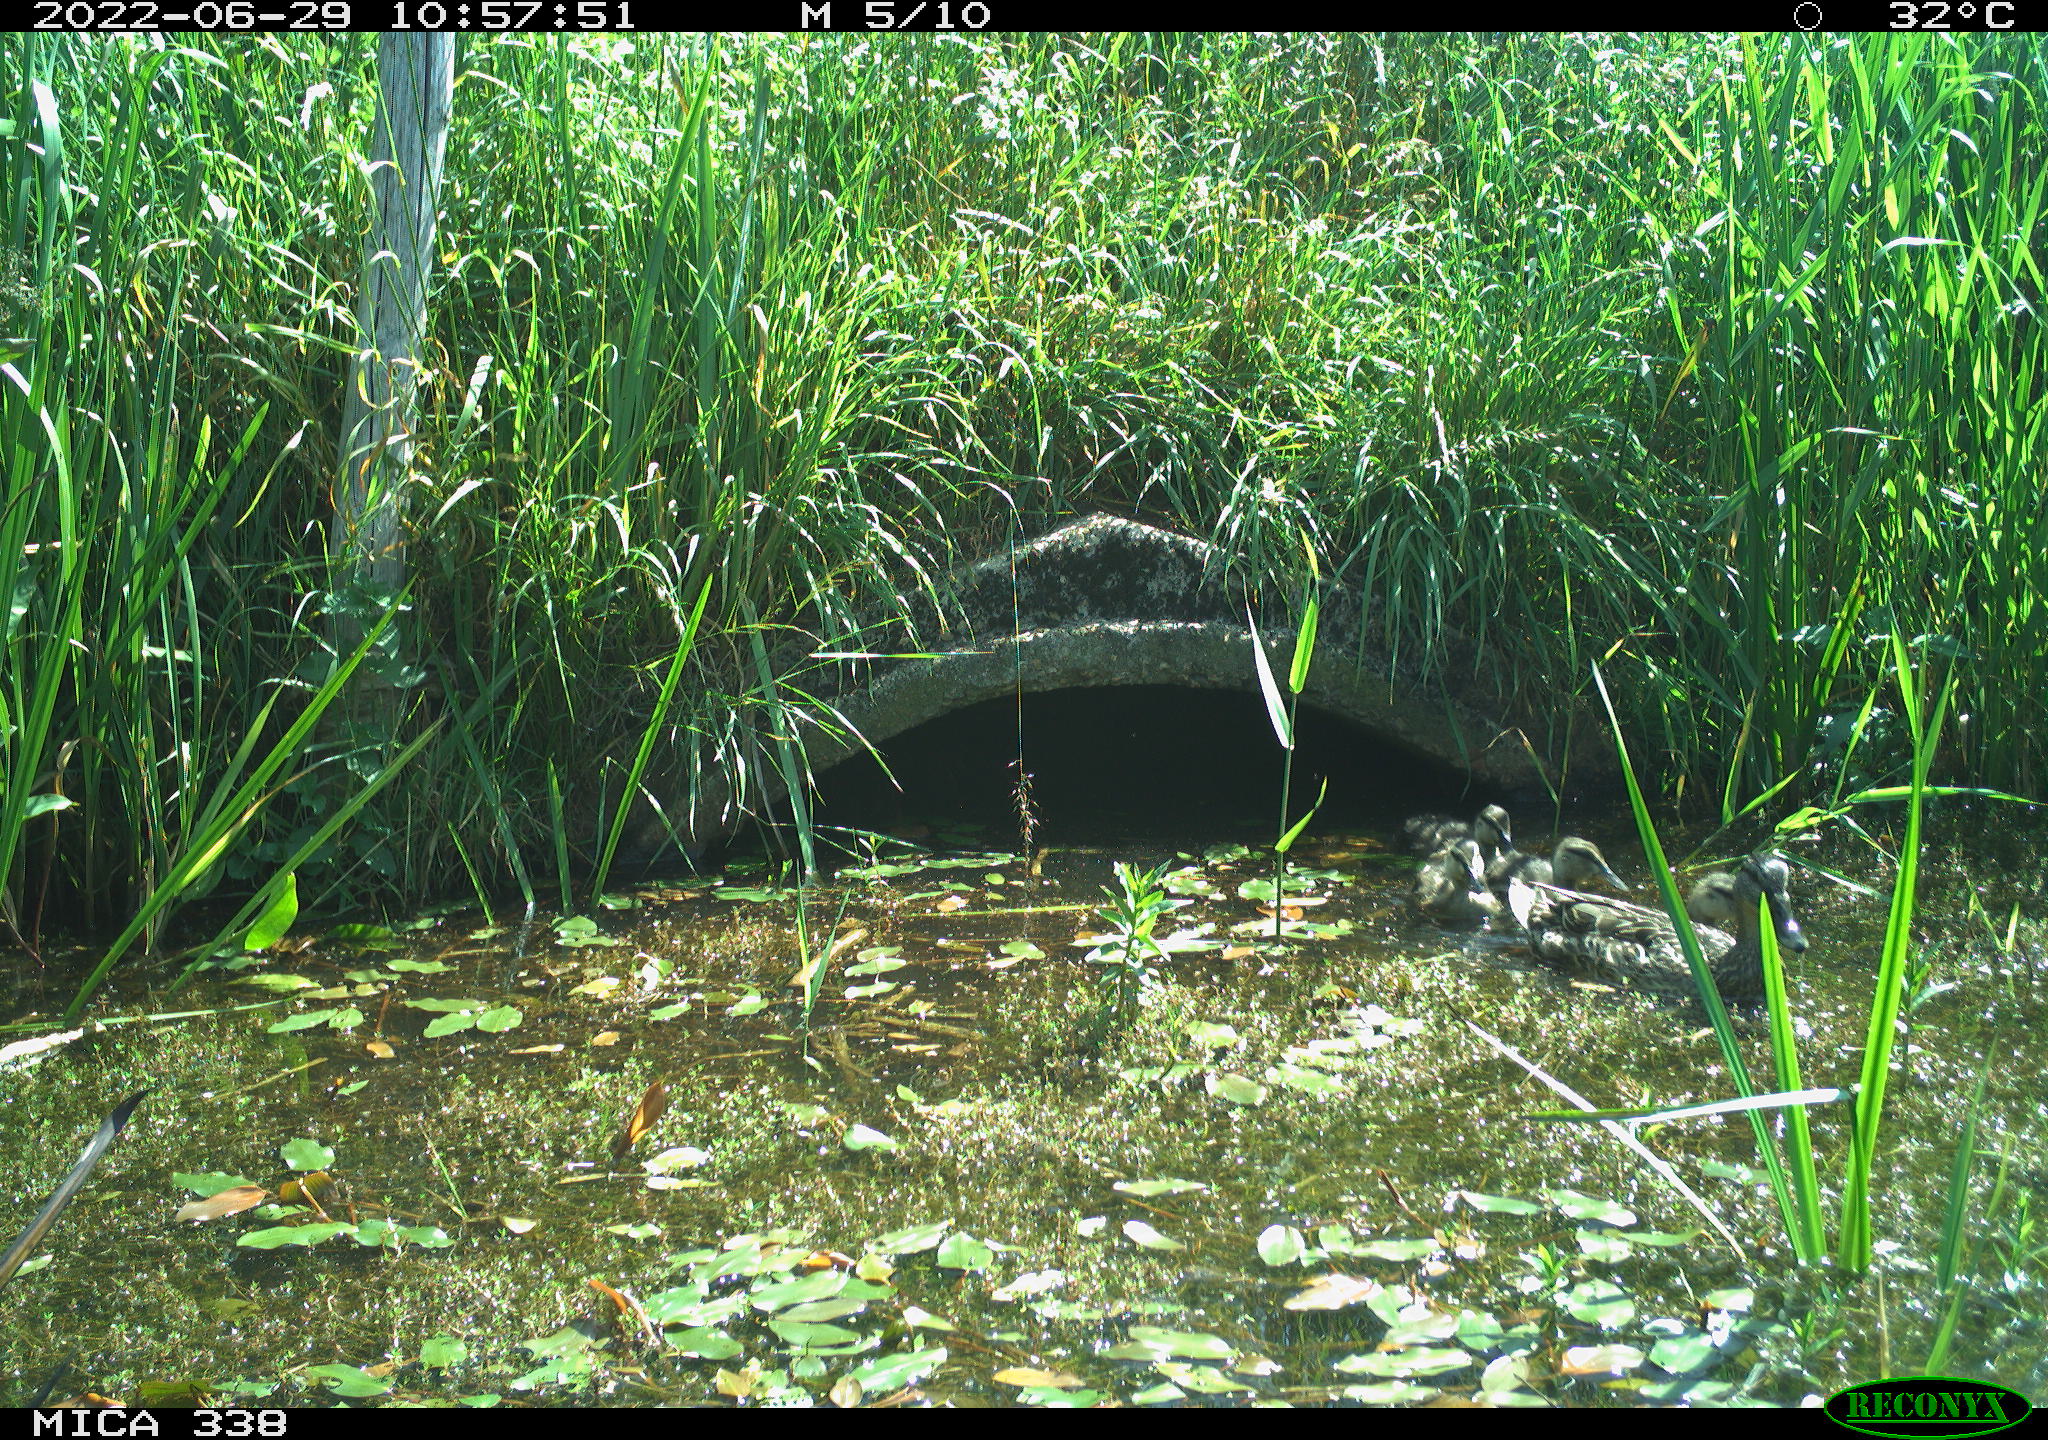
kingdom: Animalia
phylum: Chordata
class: Aves
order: Anseriformes
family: Anatidae
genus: Anas
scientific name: Anas platyrhynchos
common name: Mallard
